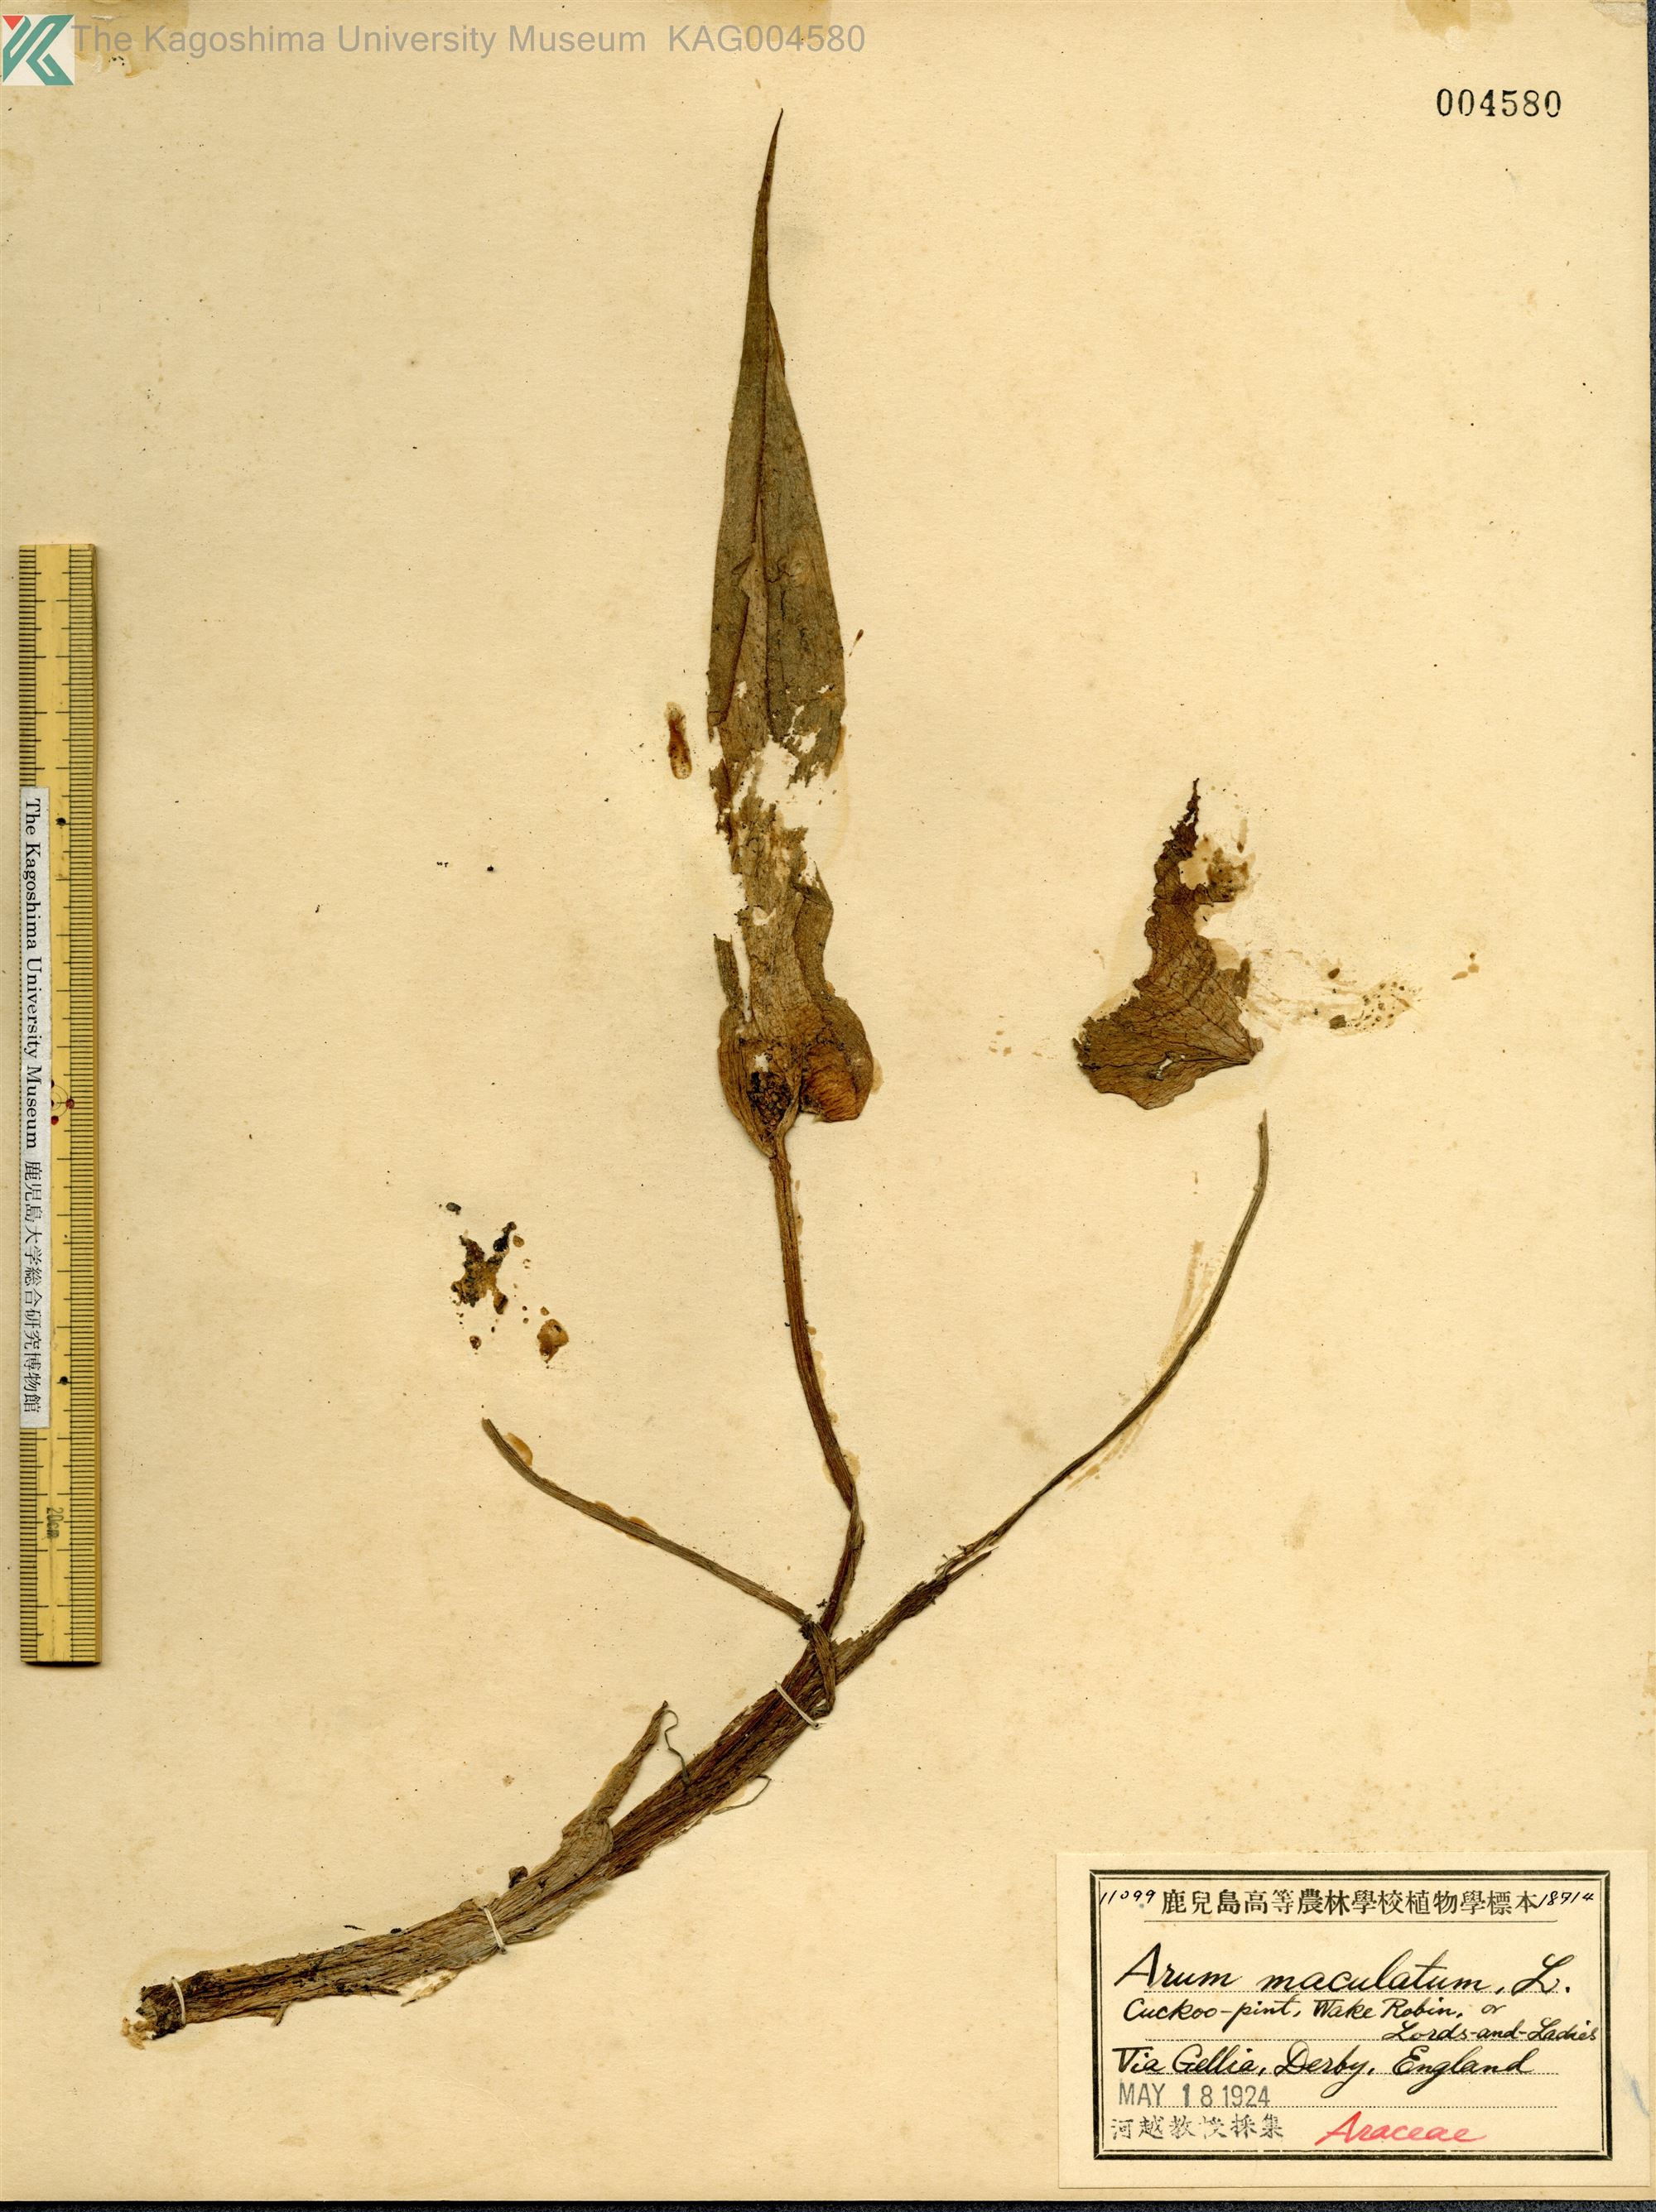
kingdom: Plantae
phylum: Tracheophyta
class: Liliopsida
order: Alismatales
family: Araceae
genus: Arum
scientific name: Arum maculatum
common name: Lords-and-ladies
